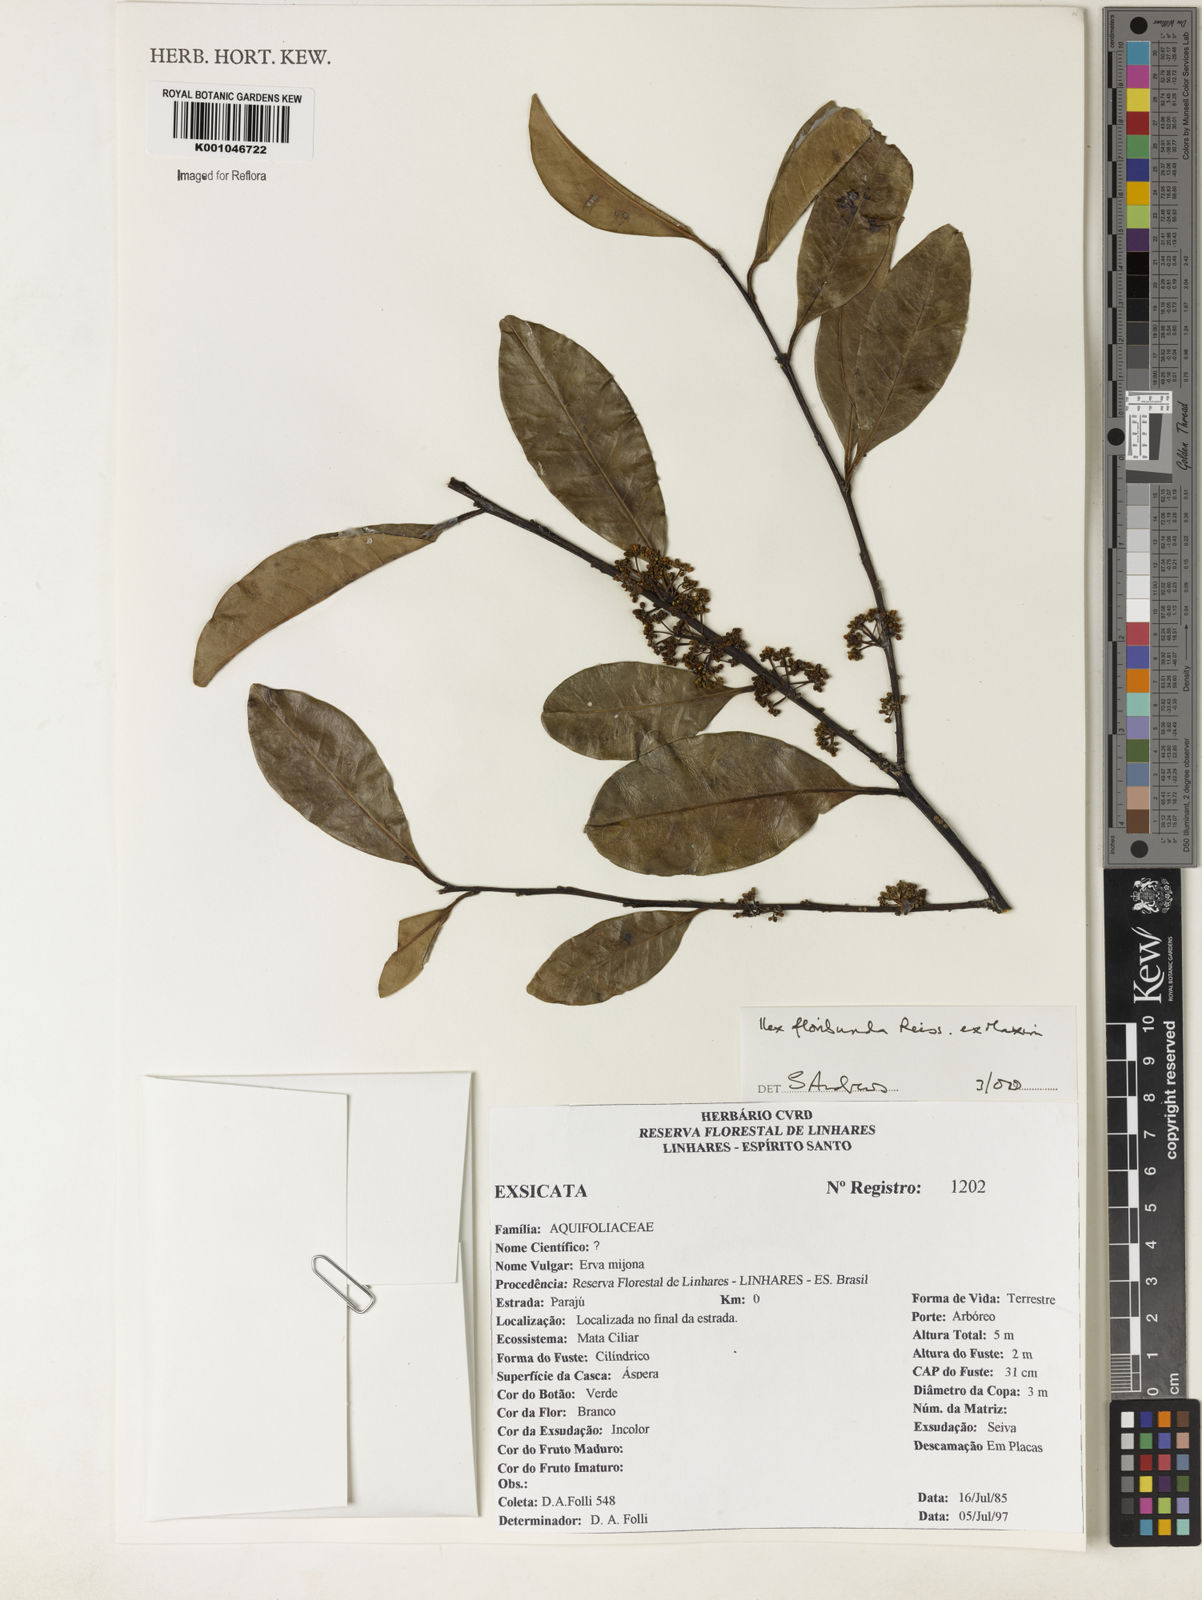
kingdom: Plantae
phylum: Tracheophyta
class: Magnoliopsida
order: Aquifoliales
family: Aquifoliaceae
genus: Ilex
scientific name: Ilex floribunda
